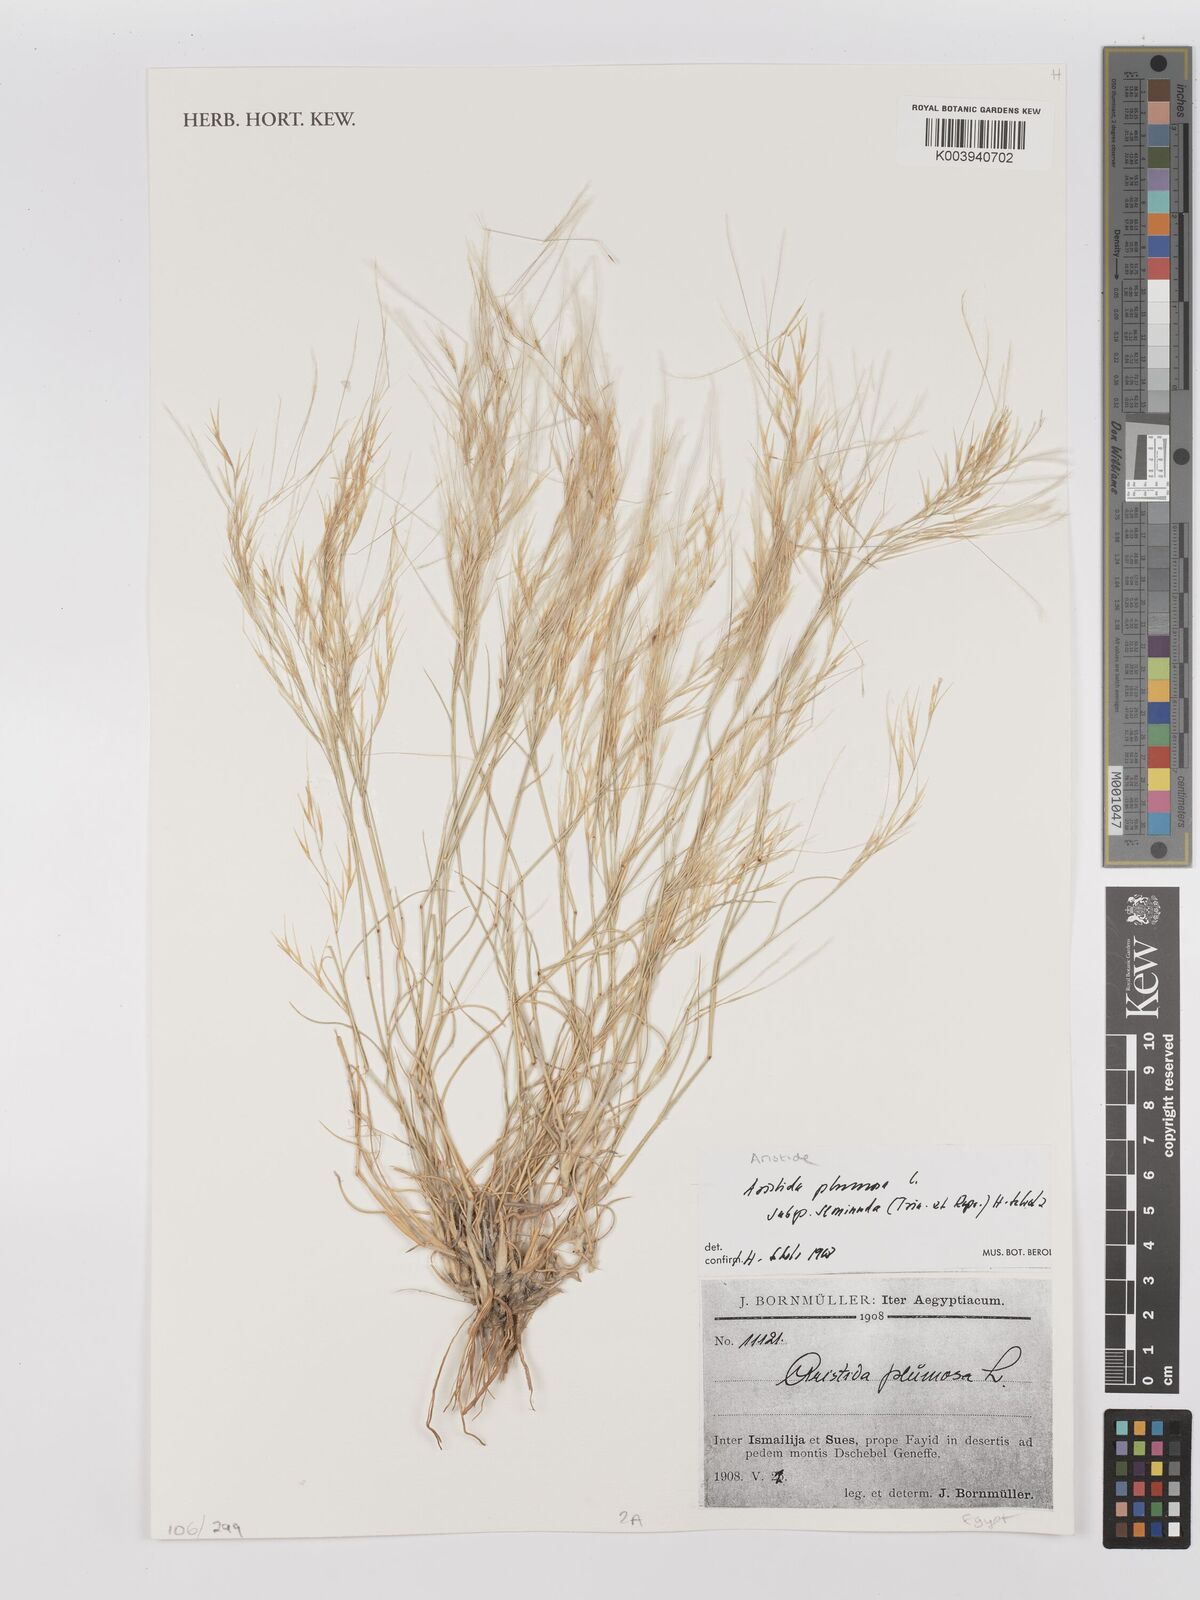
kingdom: Plantae
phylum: Tracheophyta
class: Liliopsida
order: Poales
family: Poaceae
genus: Stipagrostis
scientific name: Stipagrostis plumosa
